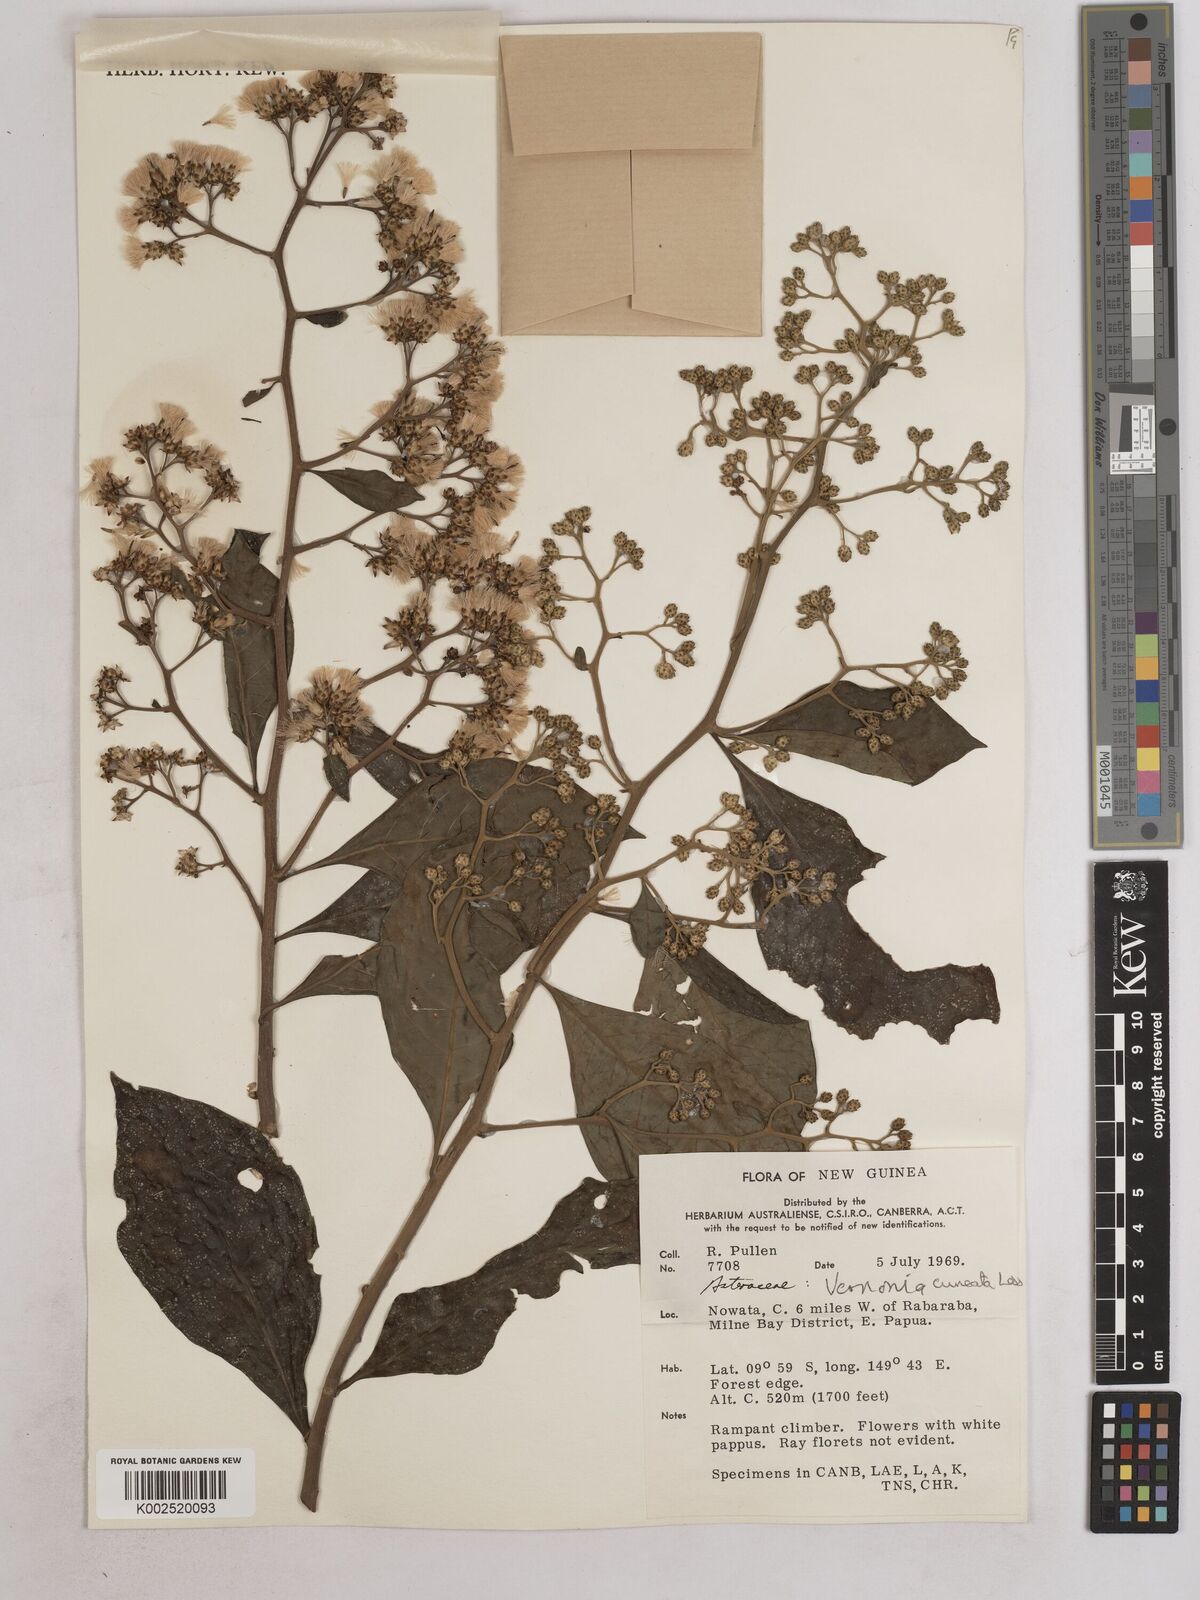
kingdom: Plantae
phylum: Tracheophyta
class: Magnoliopsida
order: Asterales
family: Asteraceae
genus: Decaneuropsis
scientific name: Decaneuropsis obovata
